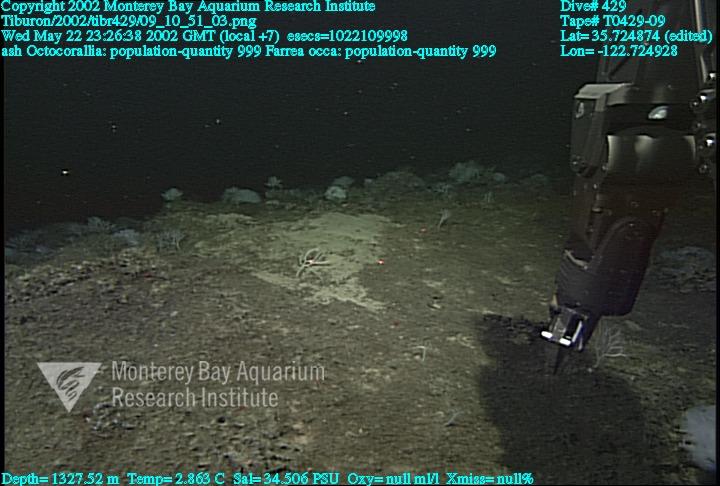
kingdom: Animalia
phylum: Porifera
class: Hexactinellida
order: Sceptrulophora
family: Farreidae
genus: Farrea
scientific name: Farrea occa
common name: Reversed glass sponge
